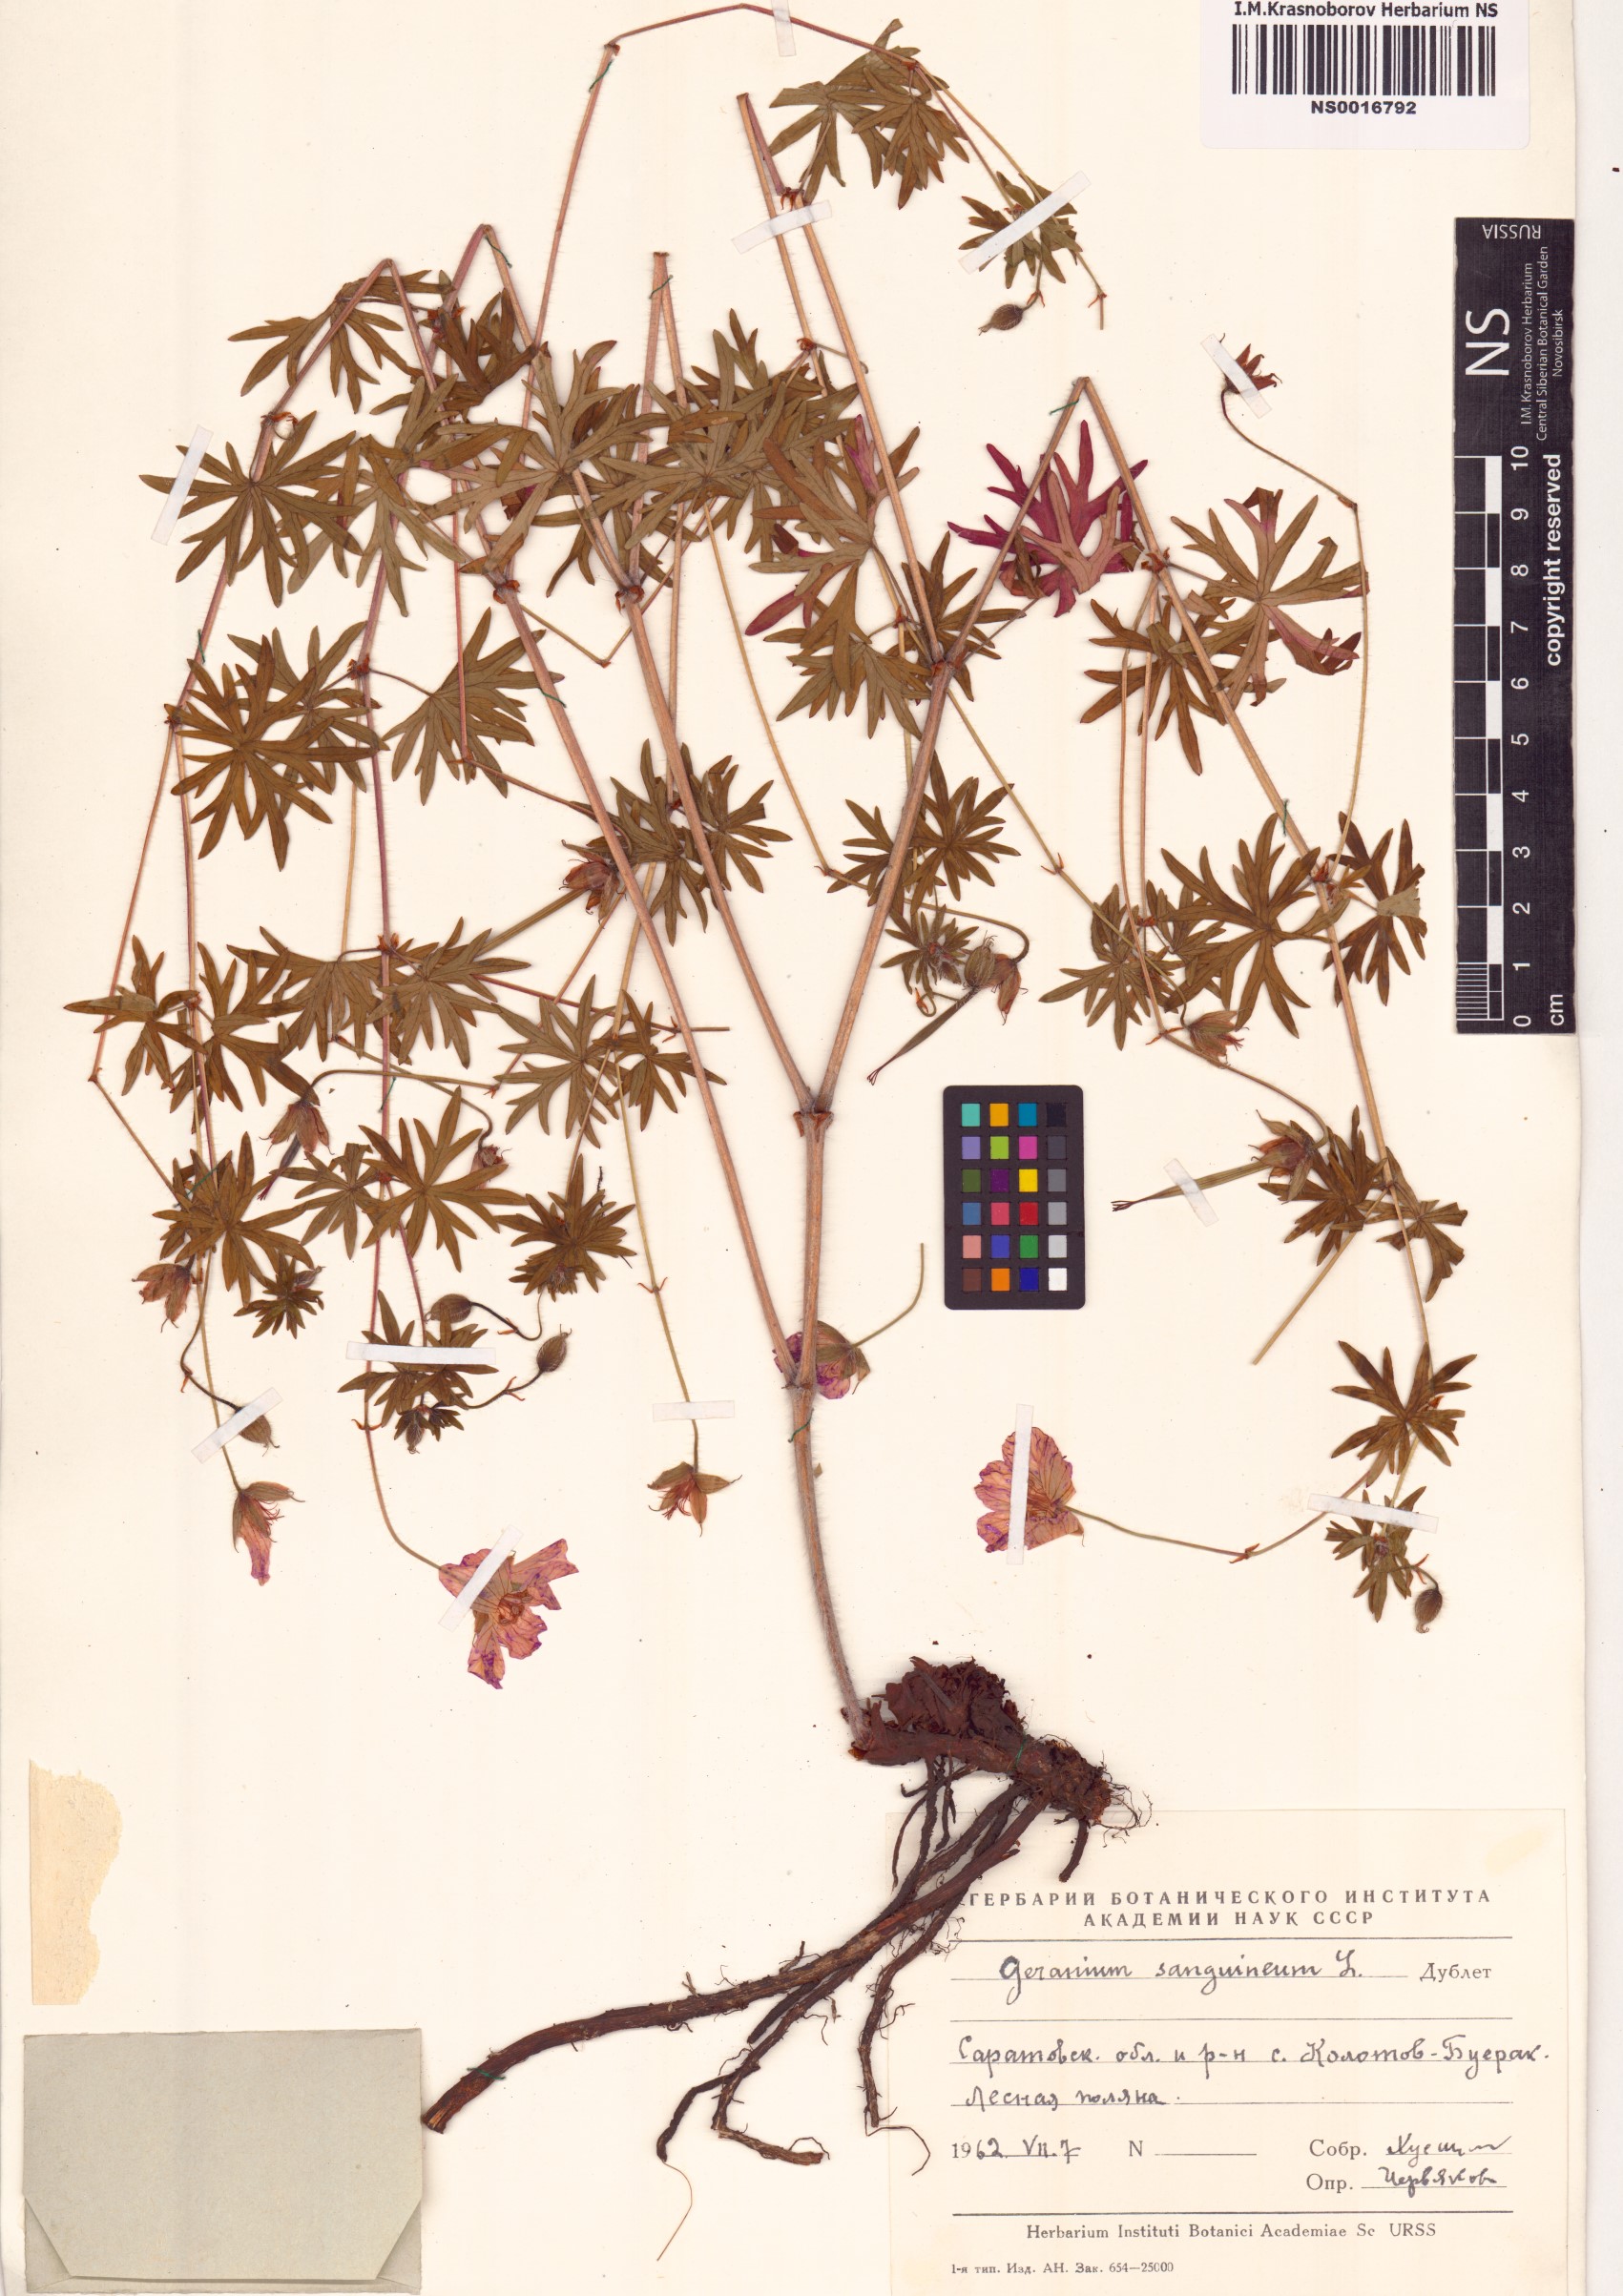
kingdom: Plantae
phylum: Tracheophyta
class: Magnoliopsida
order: Geraniales
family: Geraniaceae
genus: Geranium
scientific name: Geranium sanguineum
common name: Bloody crane's-bill
